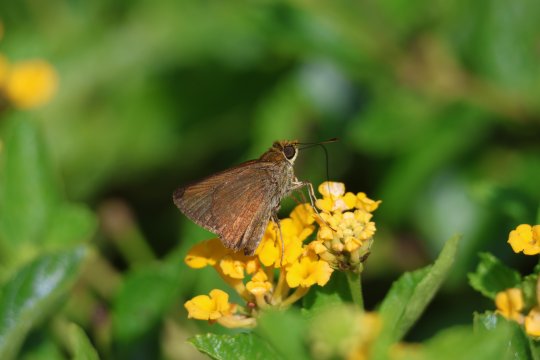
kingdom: Animalia
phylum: Arthropoda
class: Insecta
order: Lepidoptera
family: Hesperiidae
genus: Euphyes
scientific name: Euphyes vestris
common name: Dun Skipper
